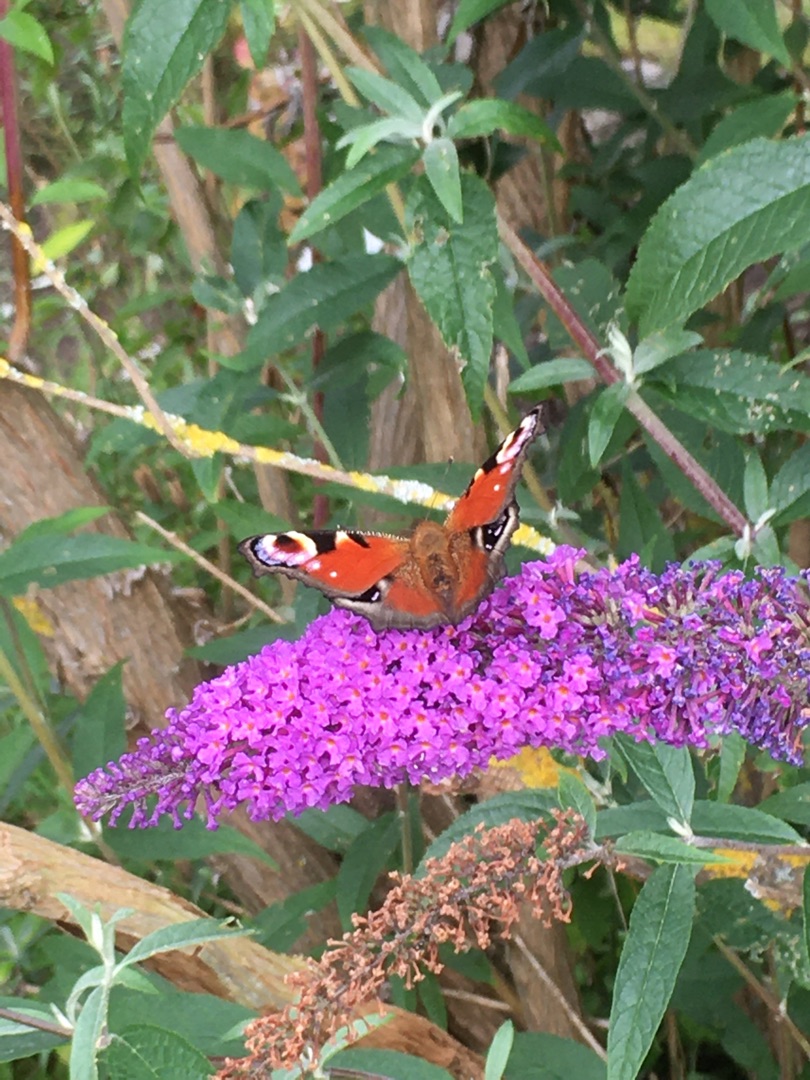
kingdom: Animalia
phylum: Arthropoda
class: Insecta
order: Lepidoptera
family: Nymphalidae
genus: Aglais
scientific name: Aglais io
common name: Dagpåfugleøje
